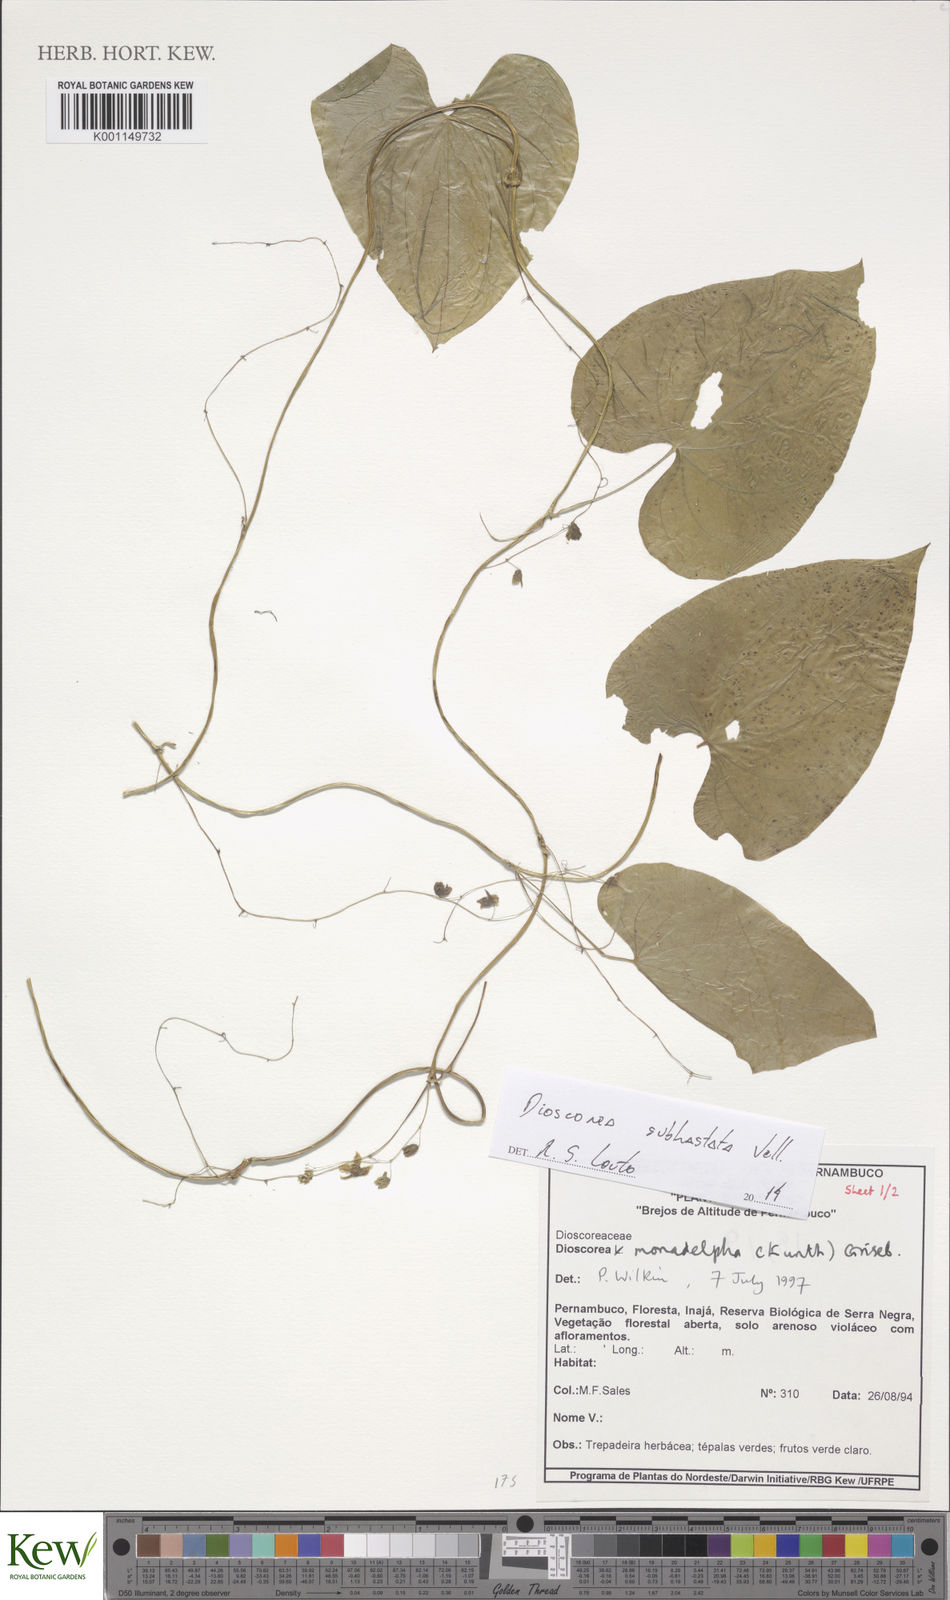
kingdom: Plantae
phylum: Tracheophyta
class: Liliopsida
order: Dioscoreales
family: Dioscoreaceae
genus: Dioscorea
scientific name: Dioscorea subhastata
